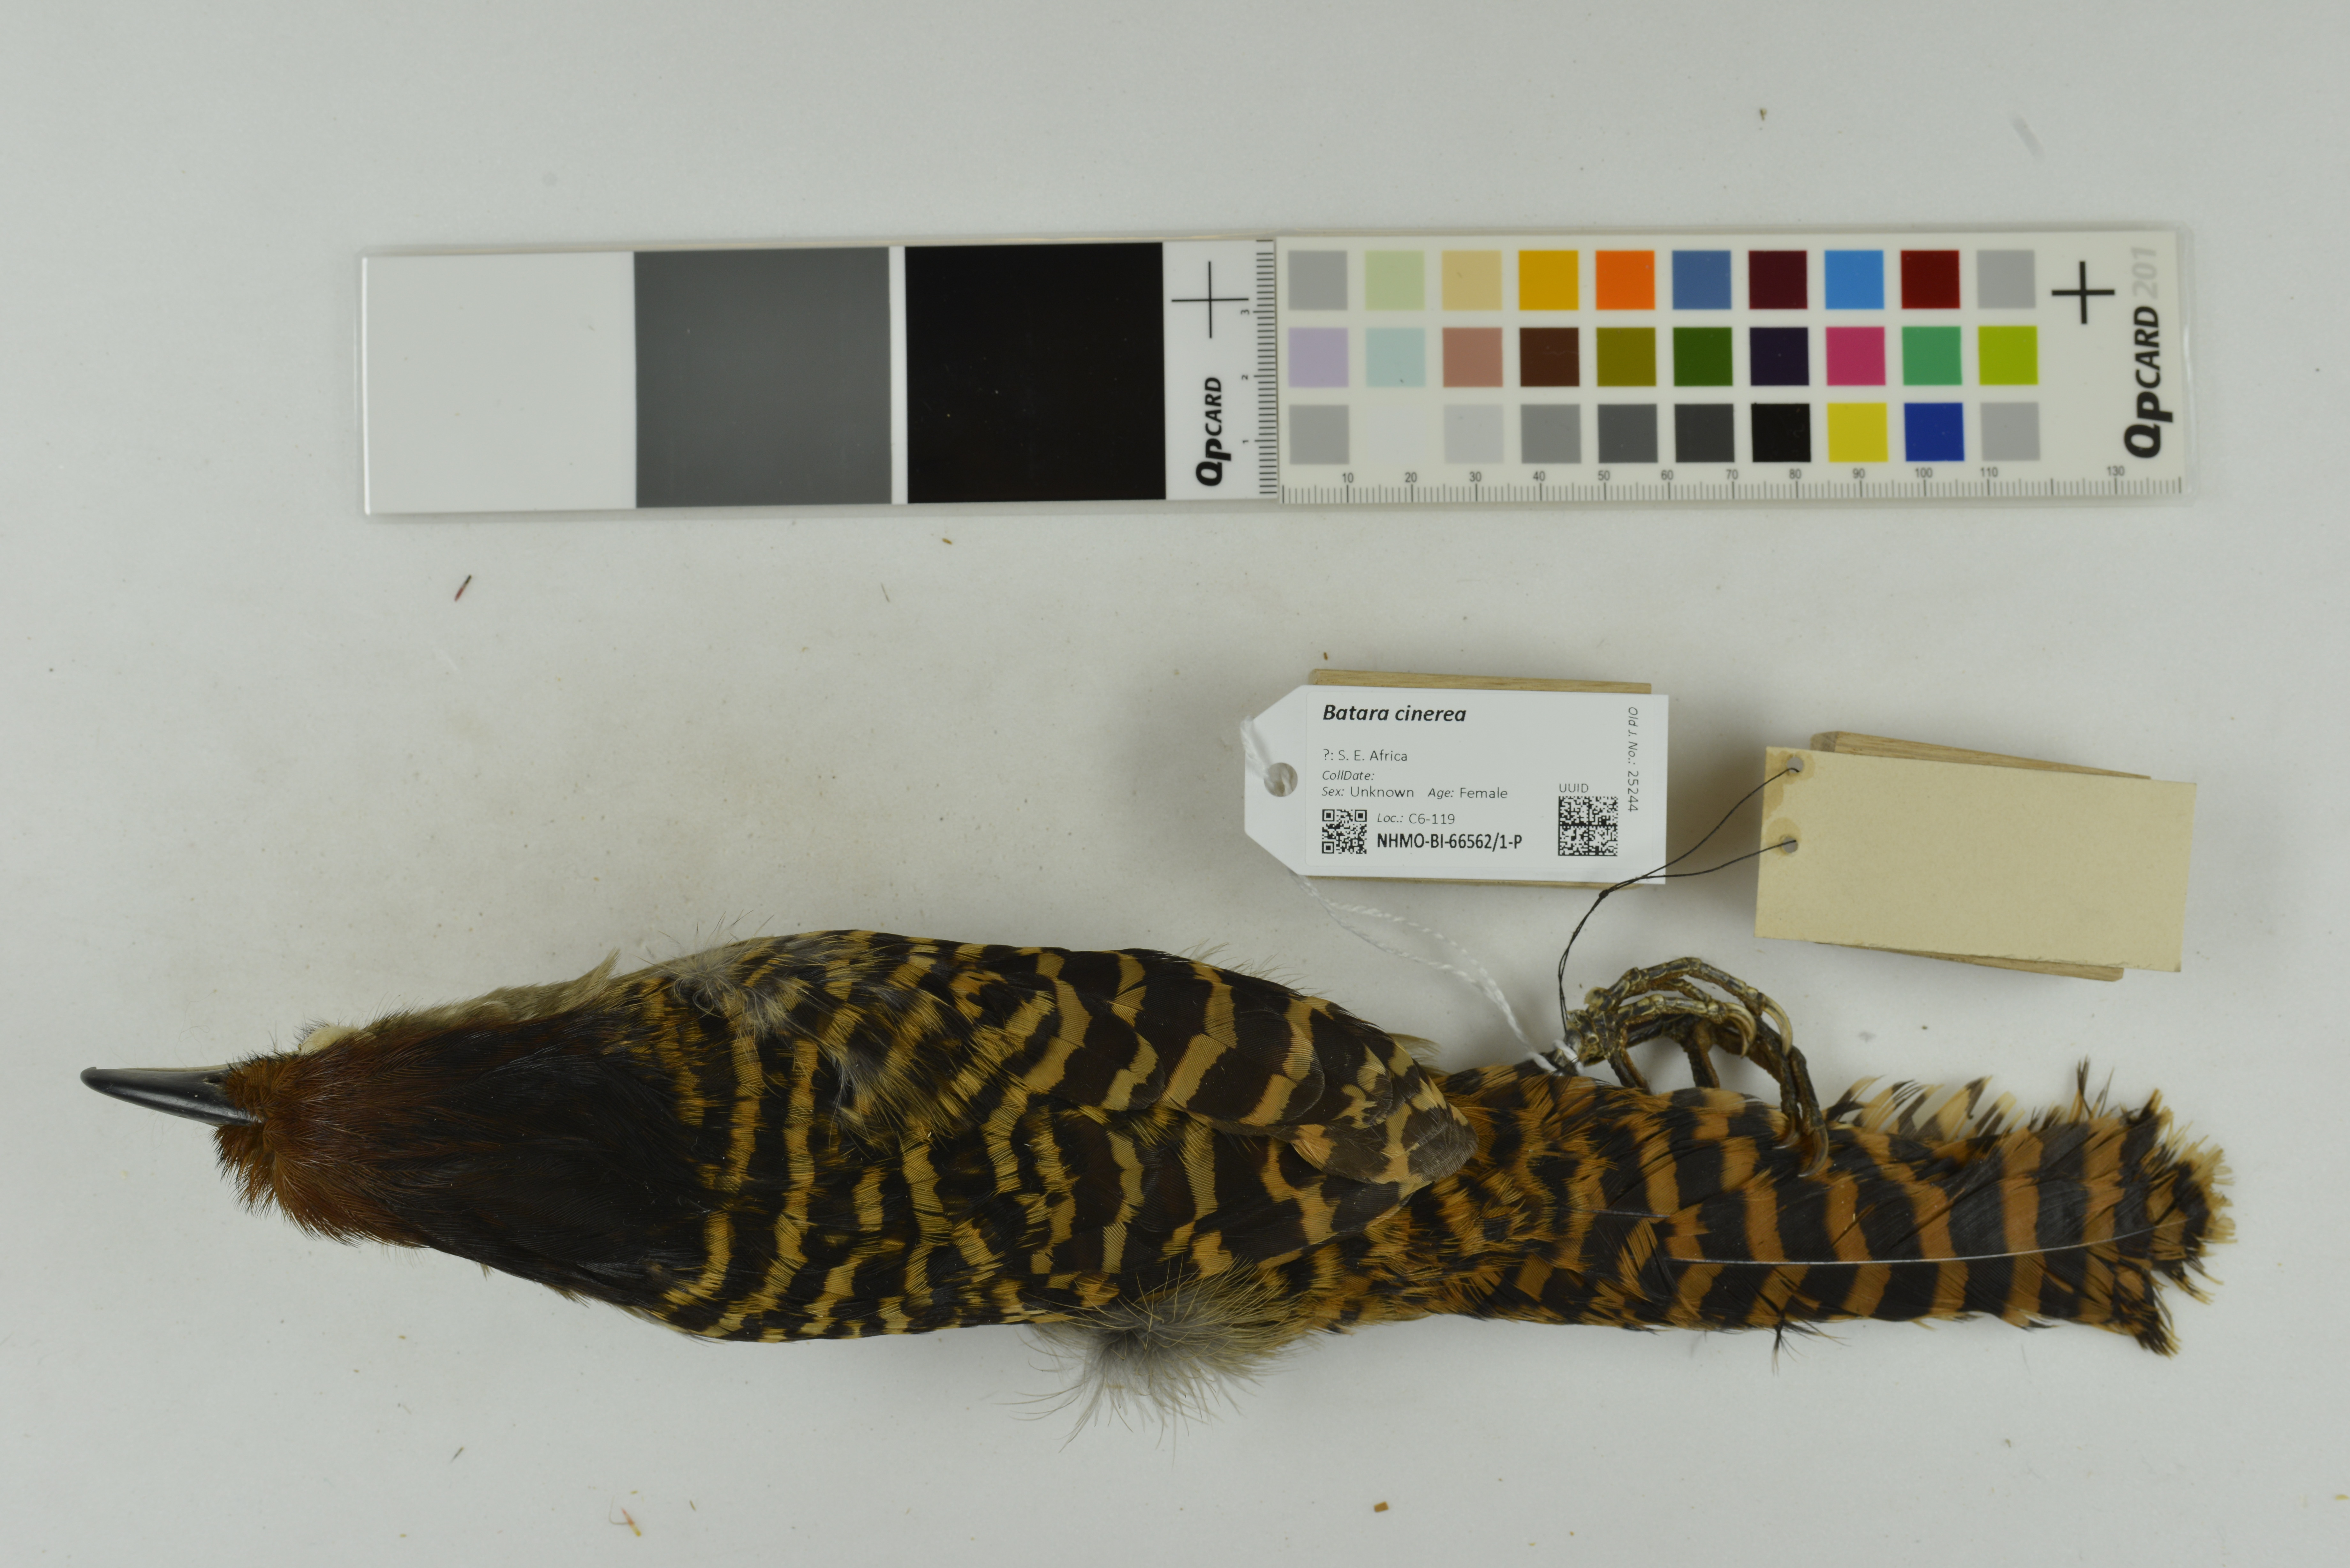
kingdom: Animalia
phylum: Chordata
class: Aves
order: Passeriformes
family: Thamnophilidae
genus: Batara
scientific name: Batara cinerea
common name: Giant antshrike
